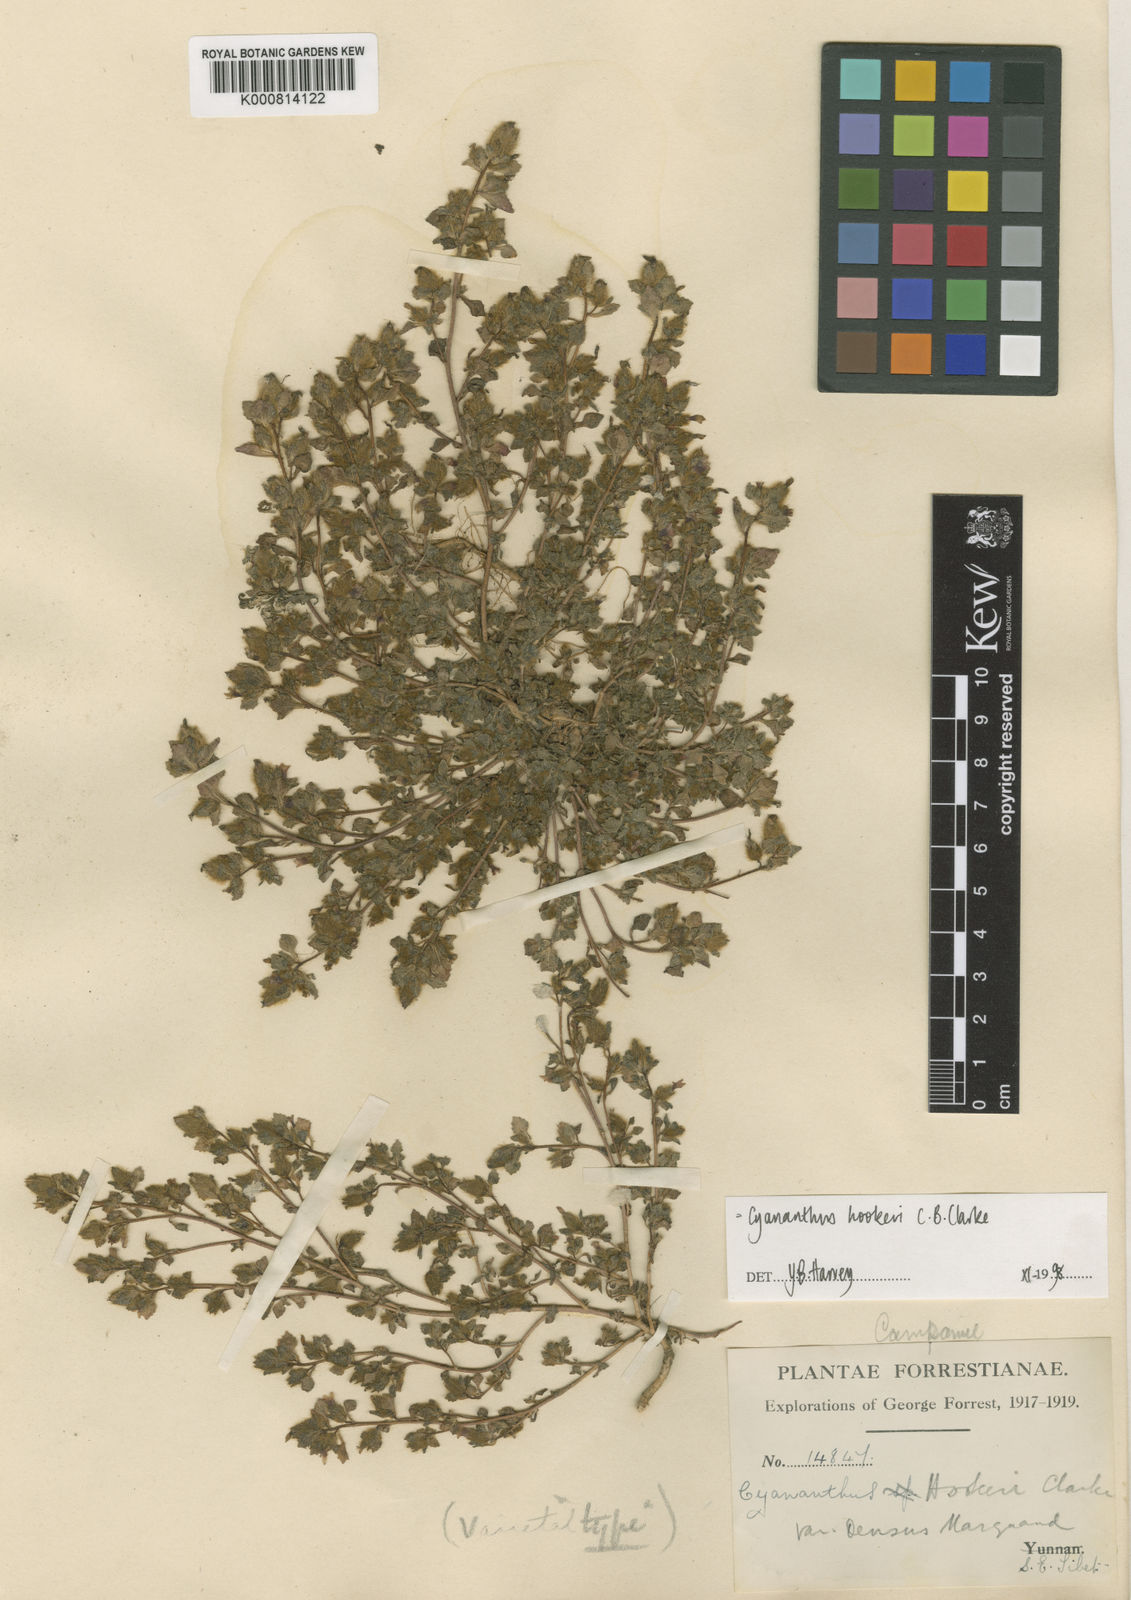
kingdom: Plantae
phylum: Tracheophyta
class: Magnoliopsida
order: Asterales
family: Campanulaceae
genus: Cyananthus
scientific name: Cyananthus hookeri
